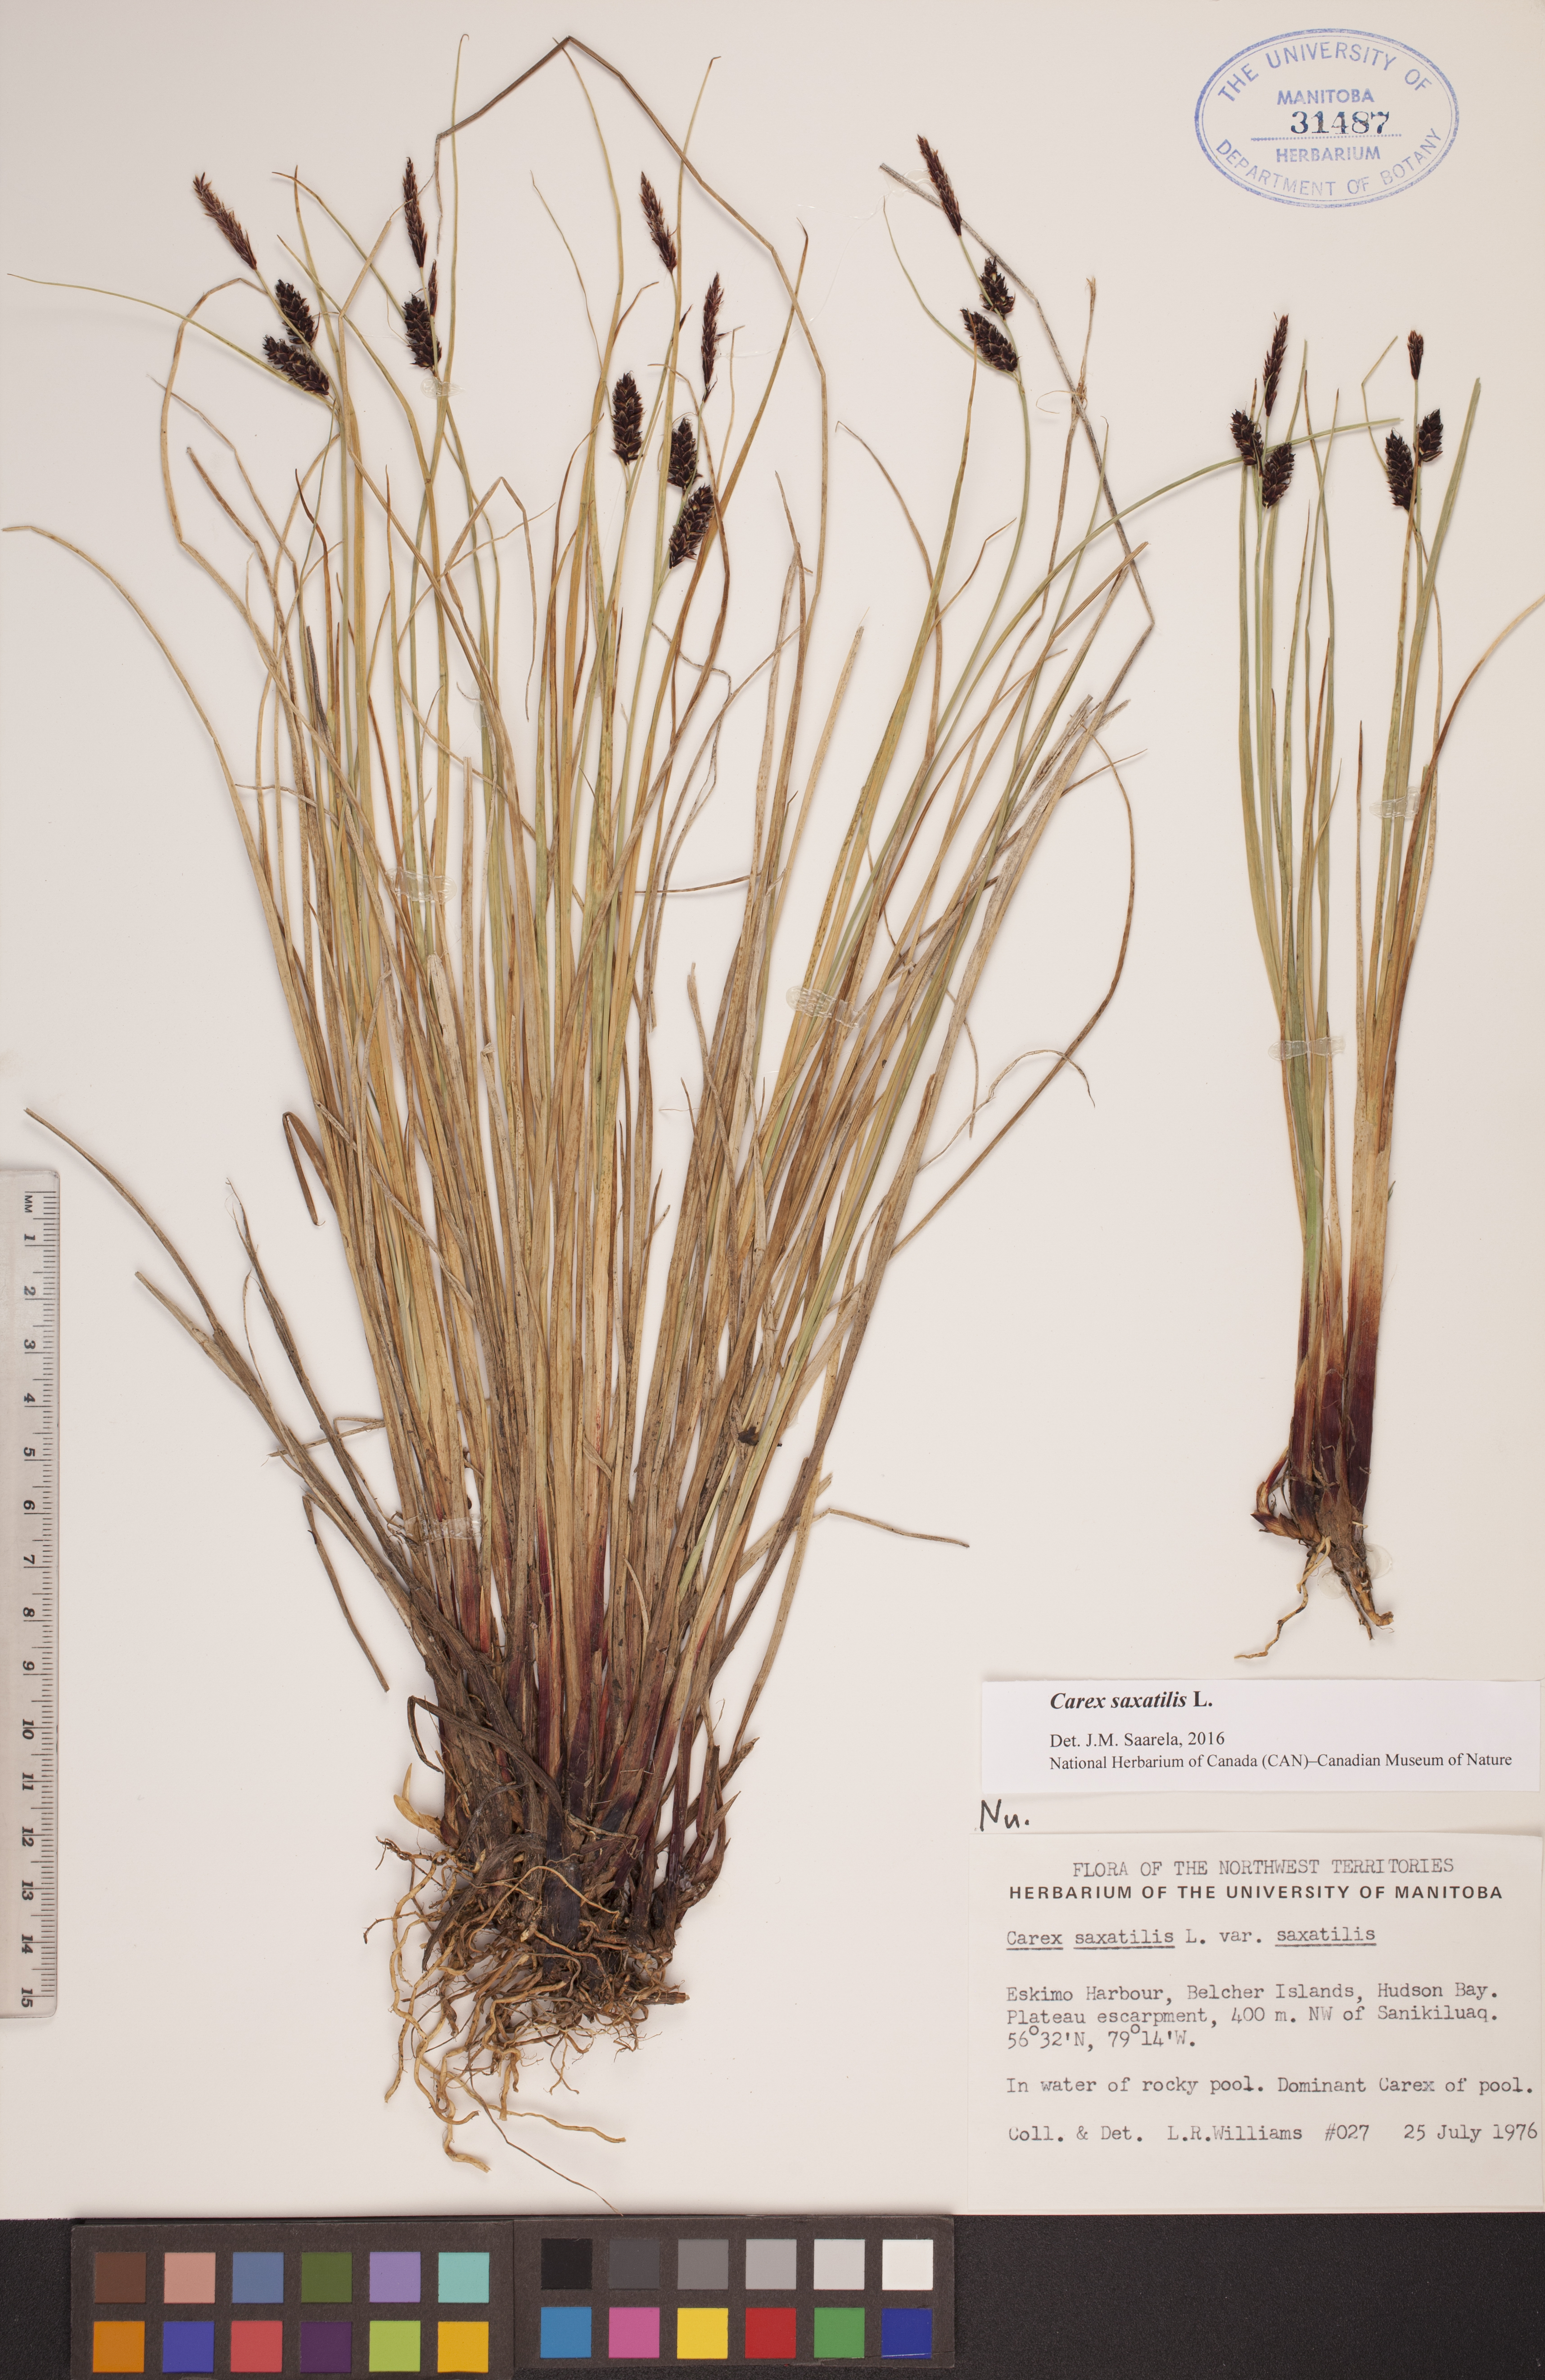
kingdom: Plantae
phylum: Tracheophyta
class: Liliopsida
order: Poales
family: Cyperaceae
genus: Carex
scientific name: Carex saxatilis
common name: Russet sedge
